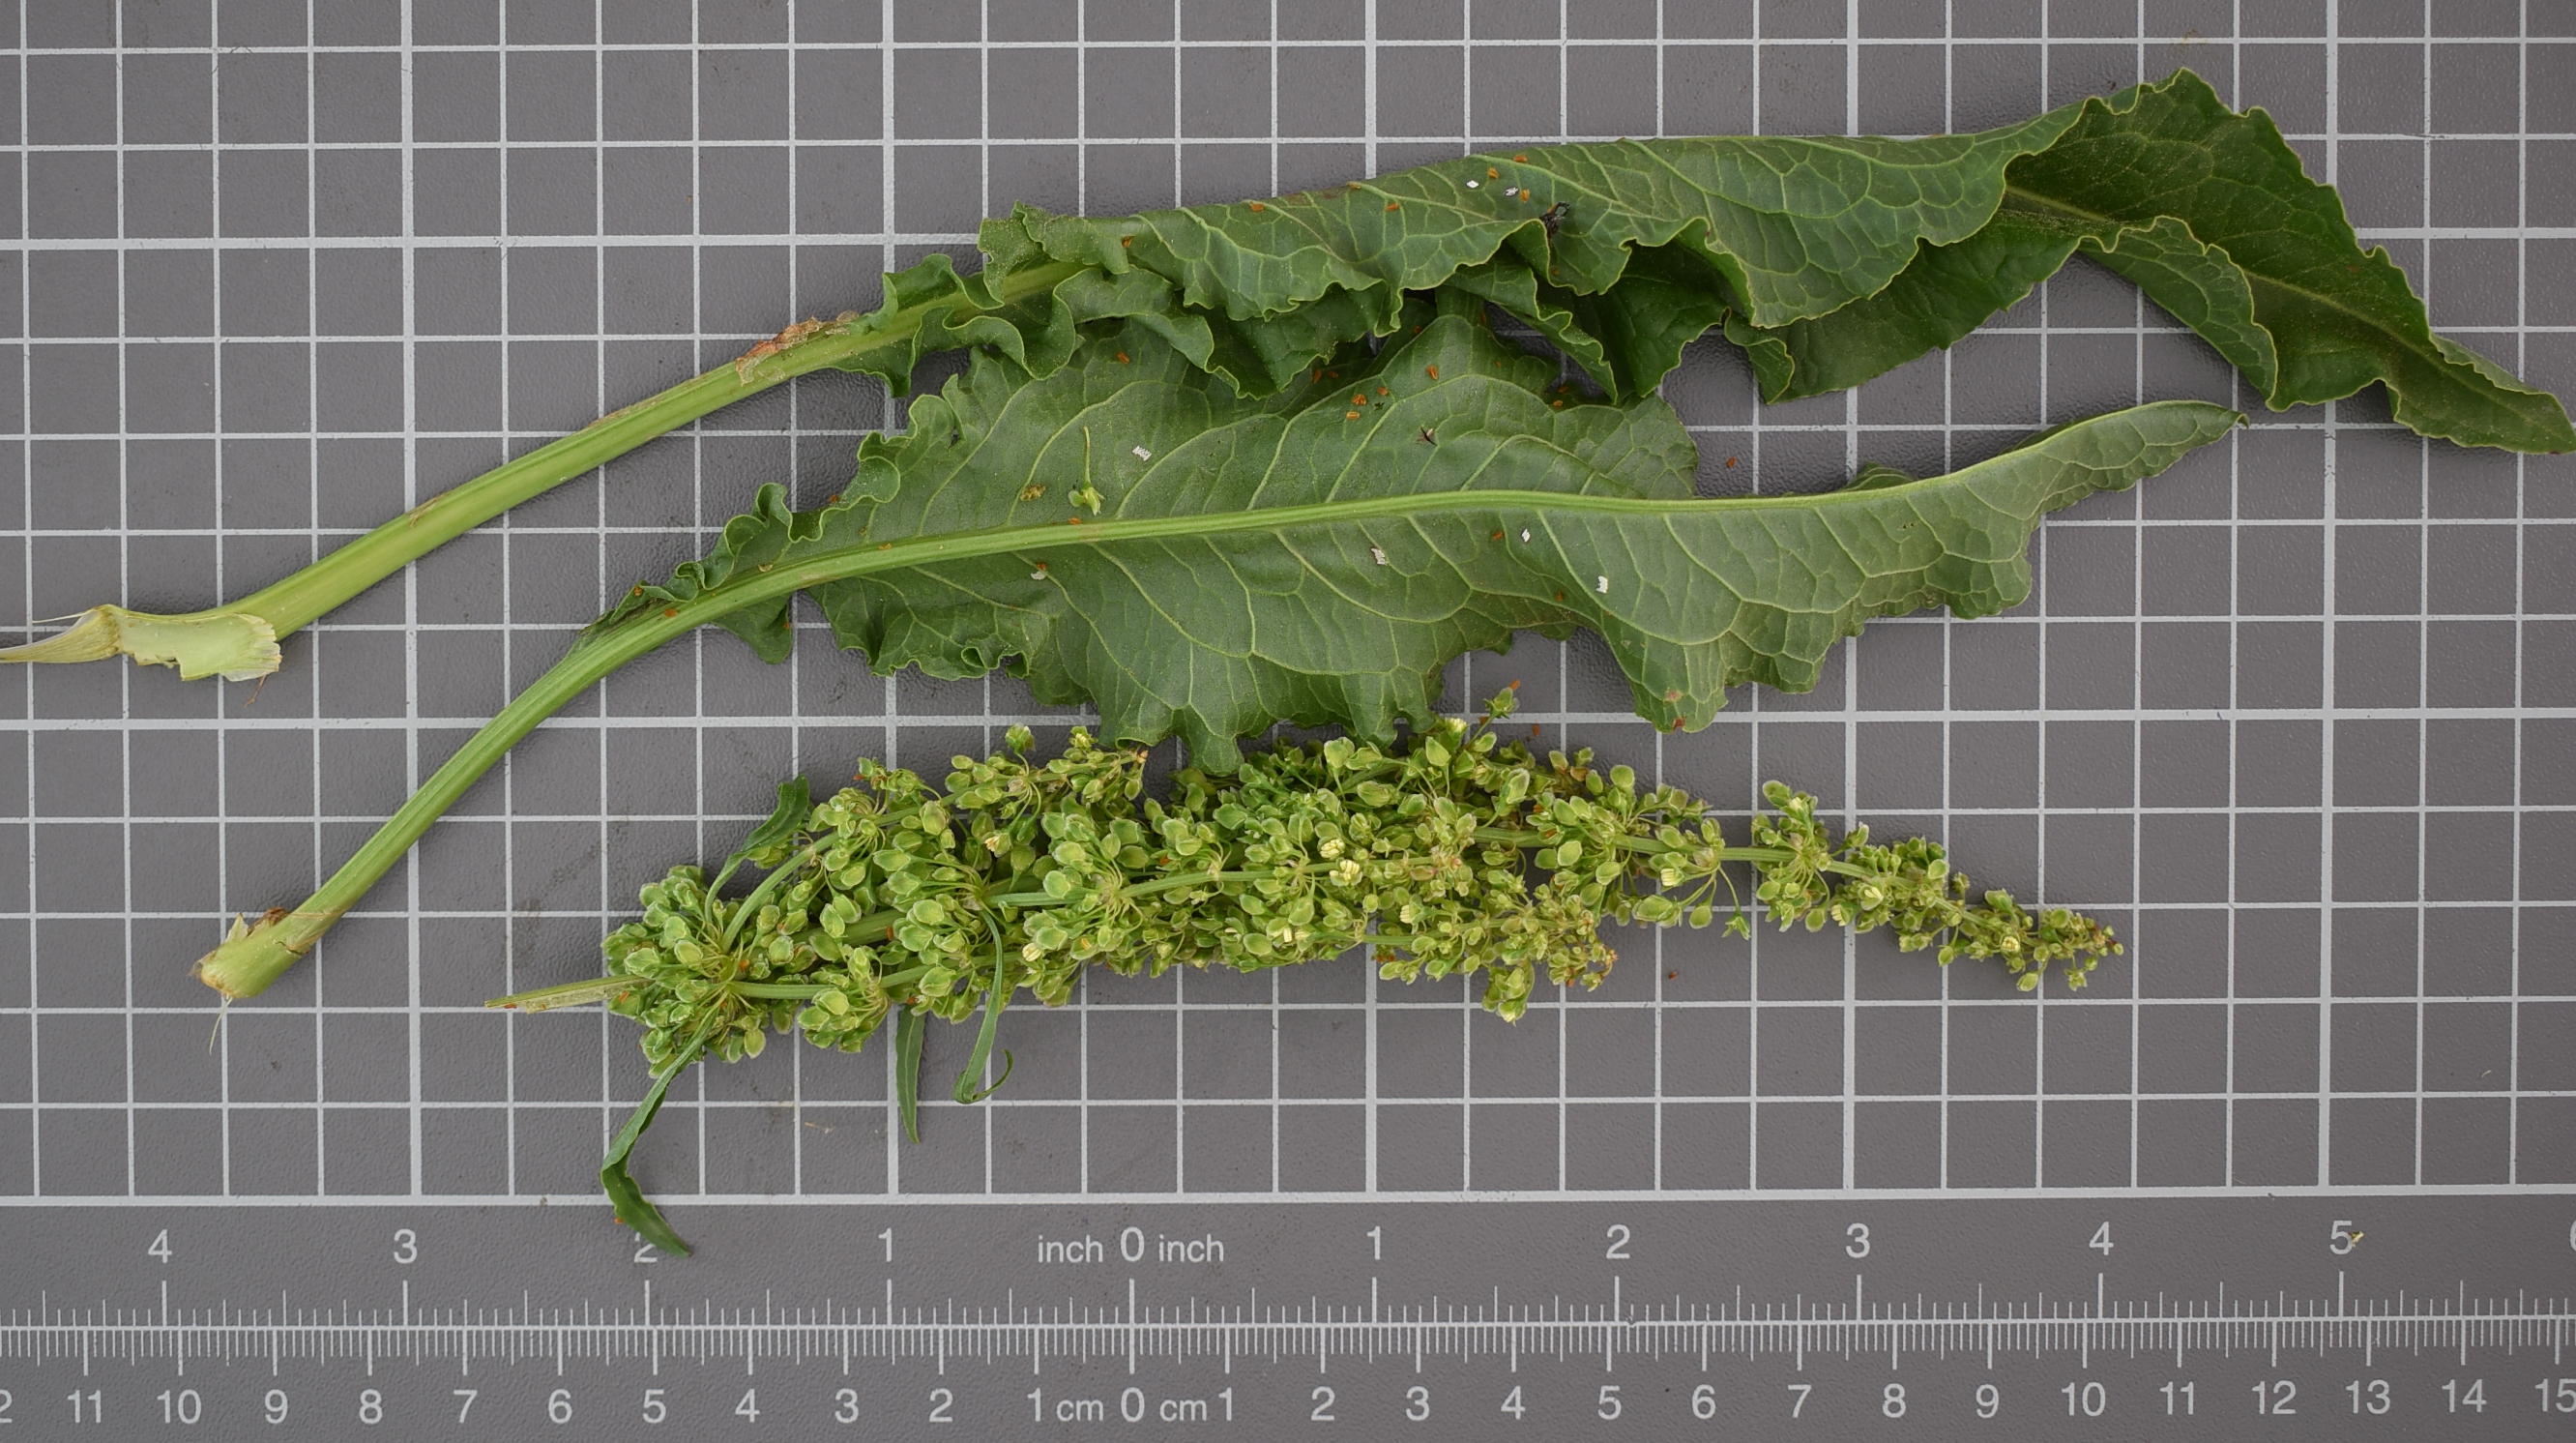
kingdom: Plantae
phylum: Tracheophyta
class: Magnoliopsida
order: Caryophyllales
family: Polygonaceae
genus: Rumex
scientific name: Rumex longifolius
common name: Dooryard dock
